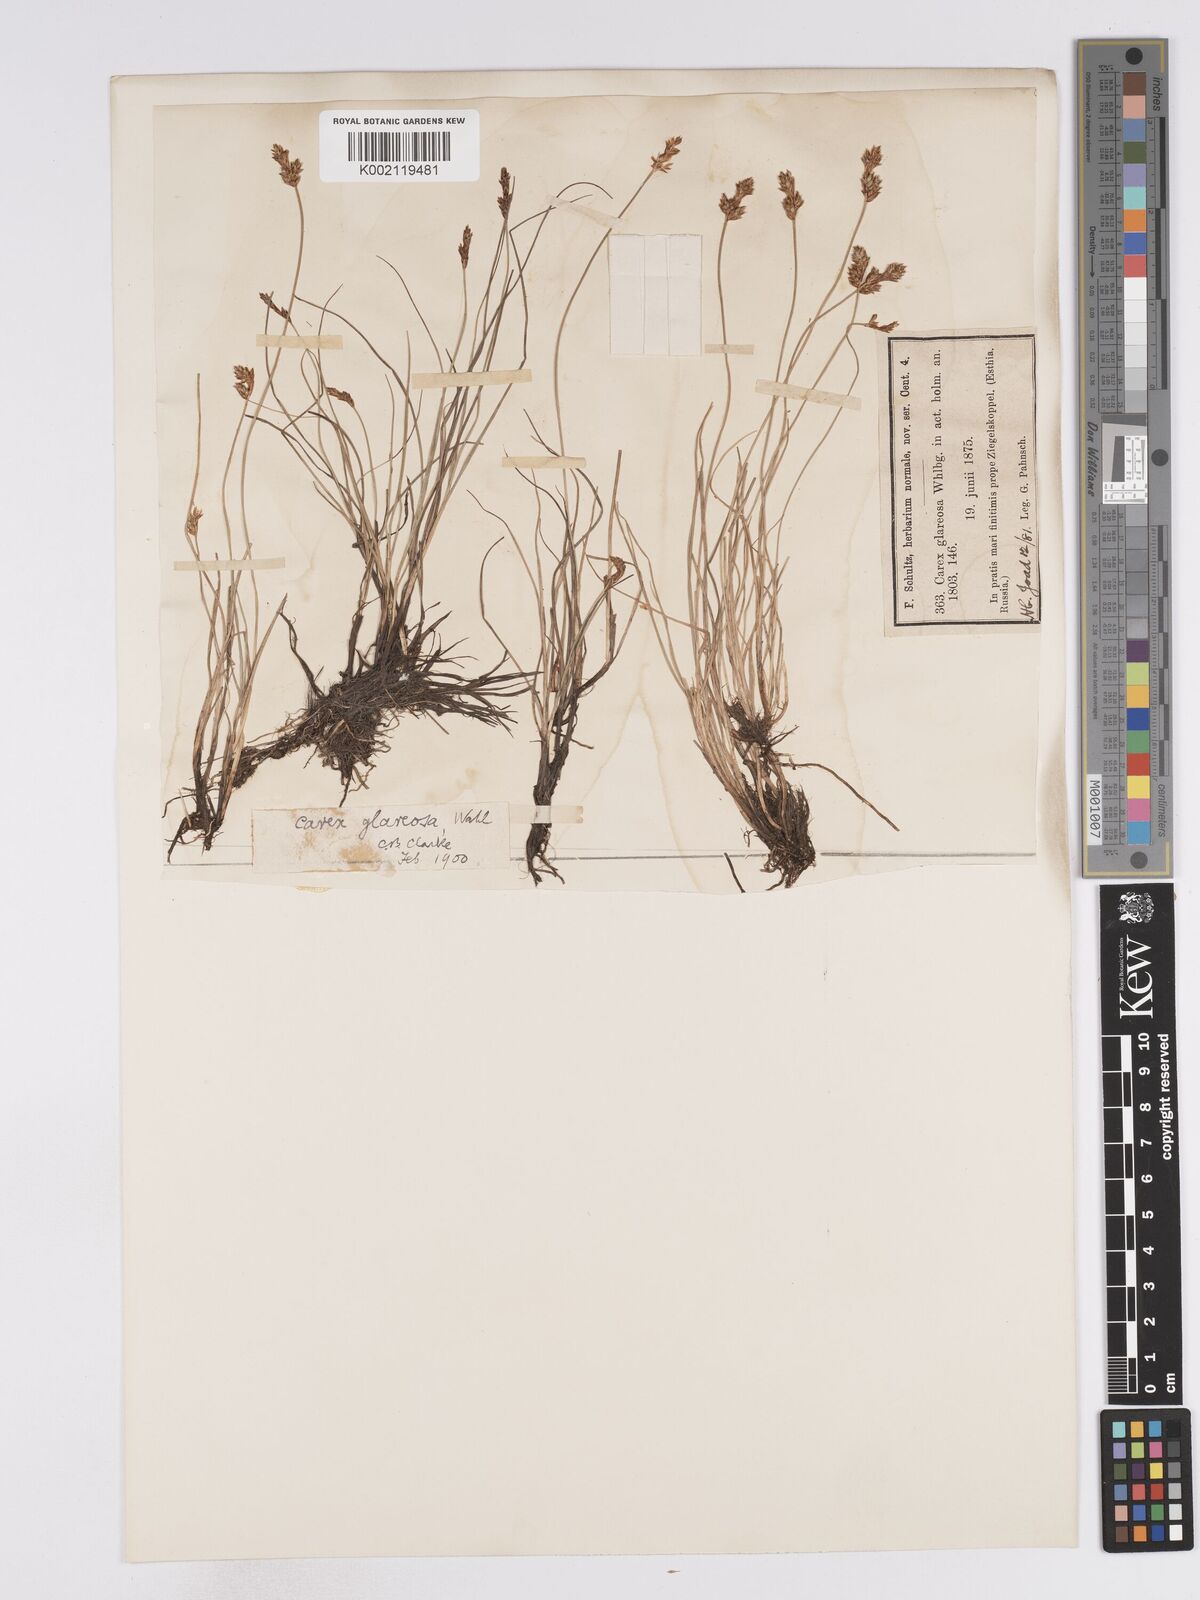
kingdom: Plantae
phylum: Tracheophyta
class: Liliopsida
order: Poales
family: Cyperaceae
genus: Carex
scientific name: Carex glareosa
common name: Clustered sedge
